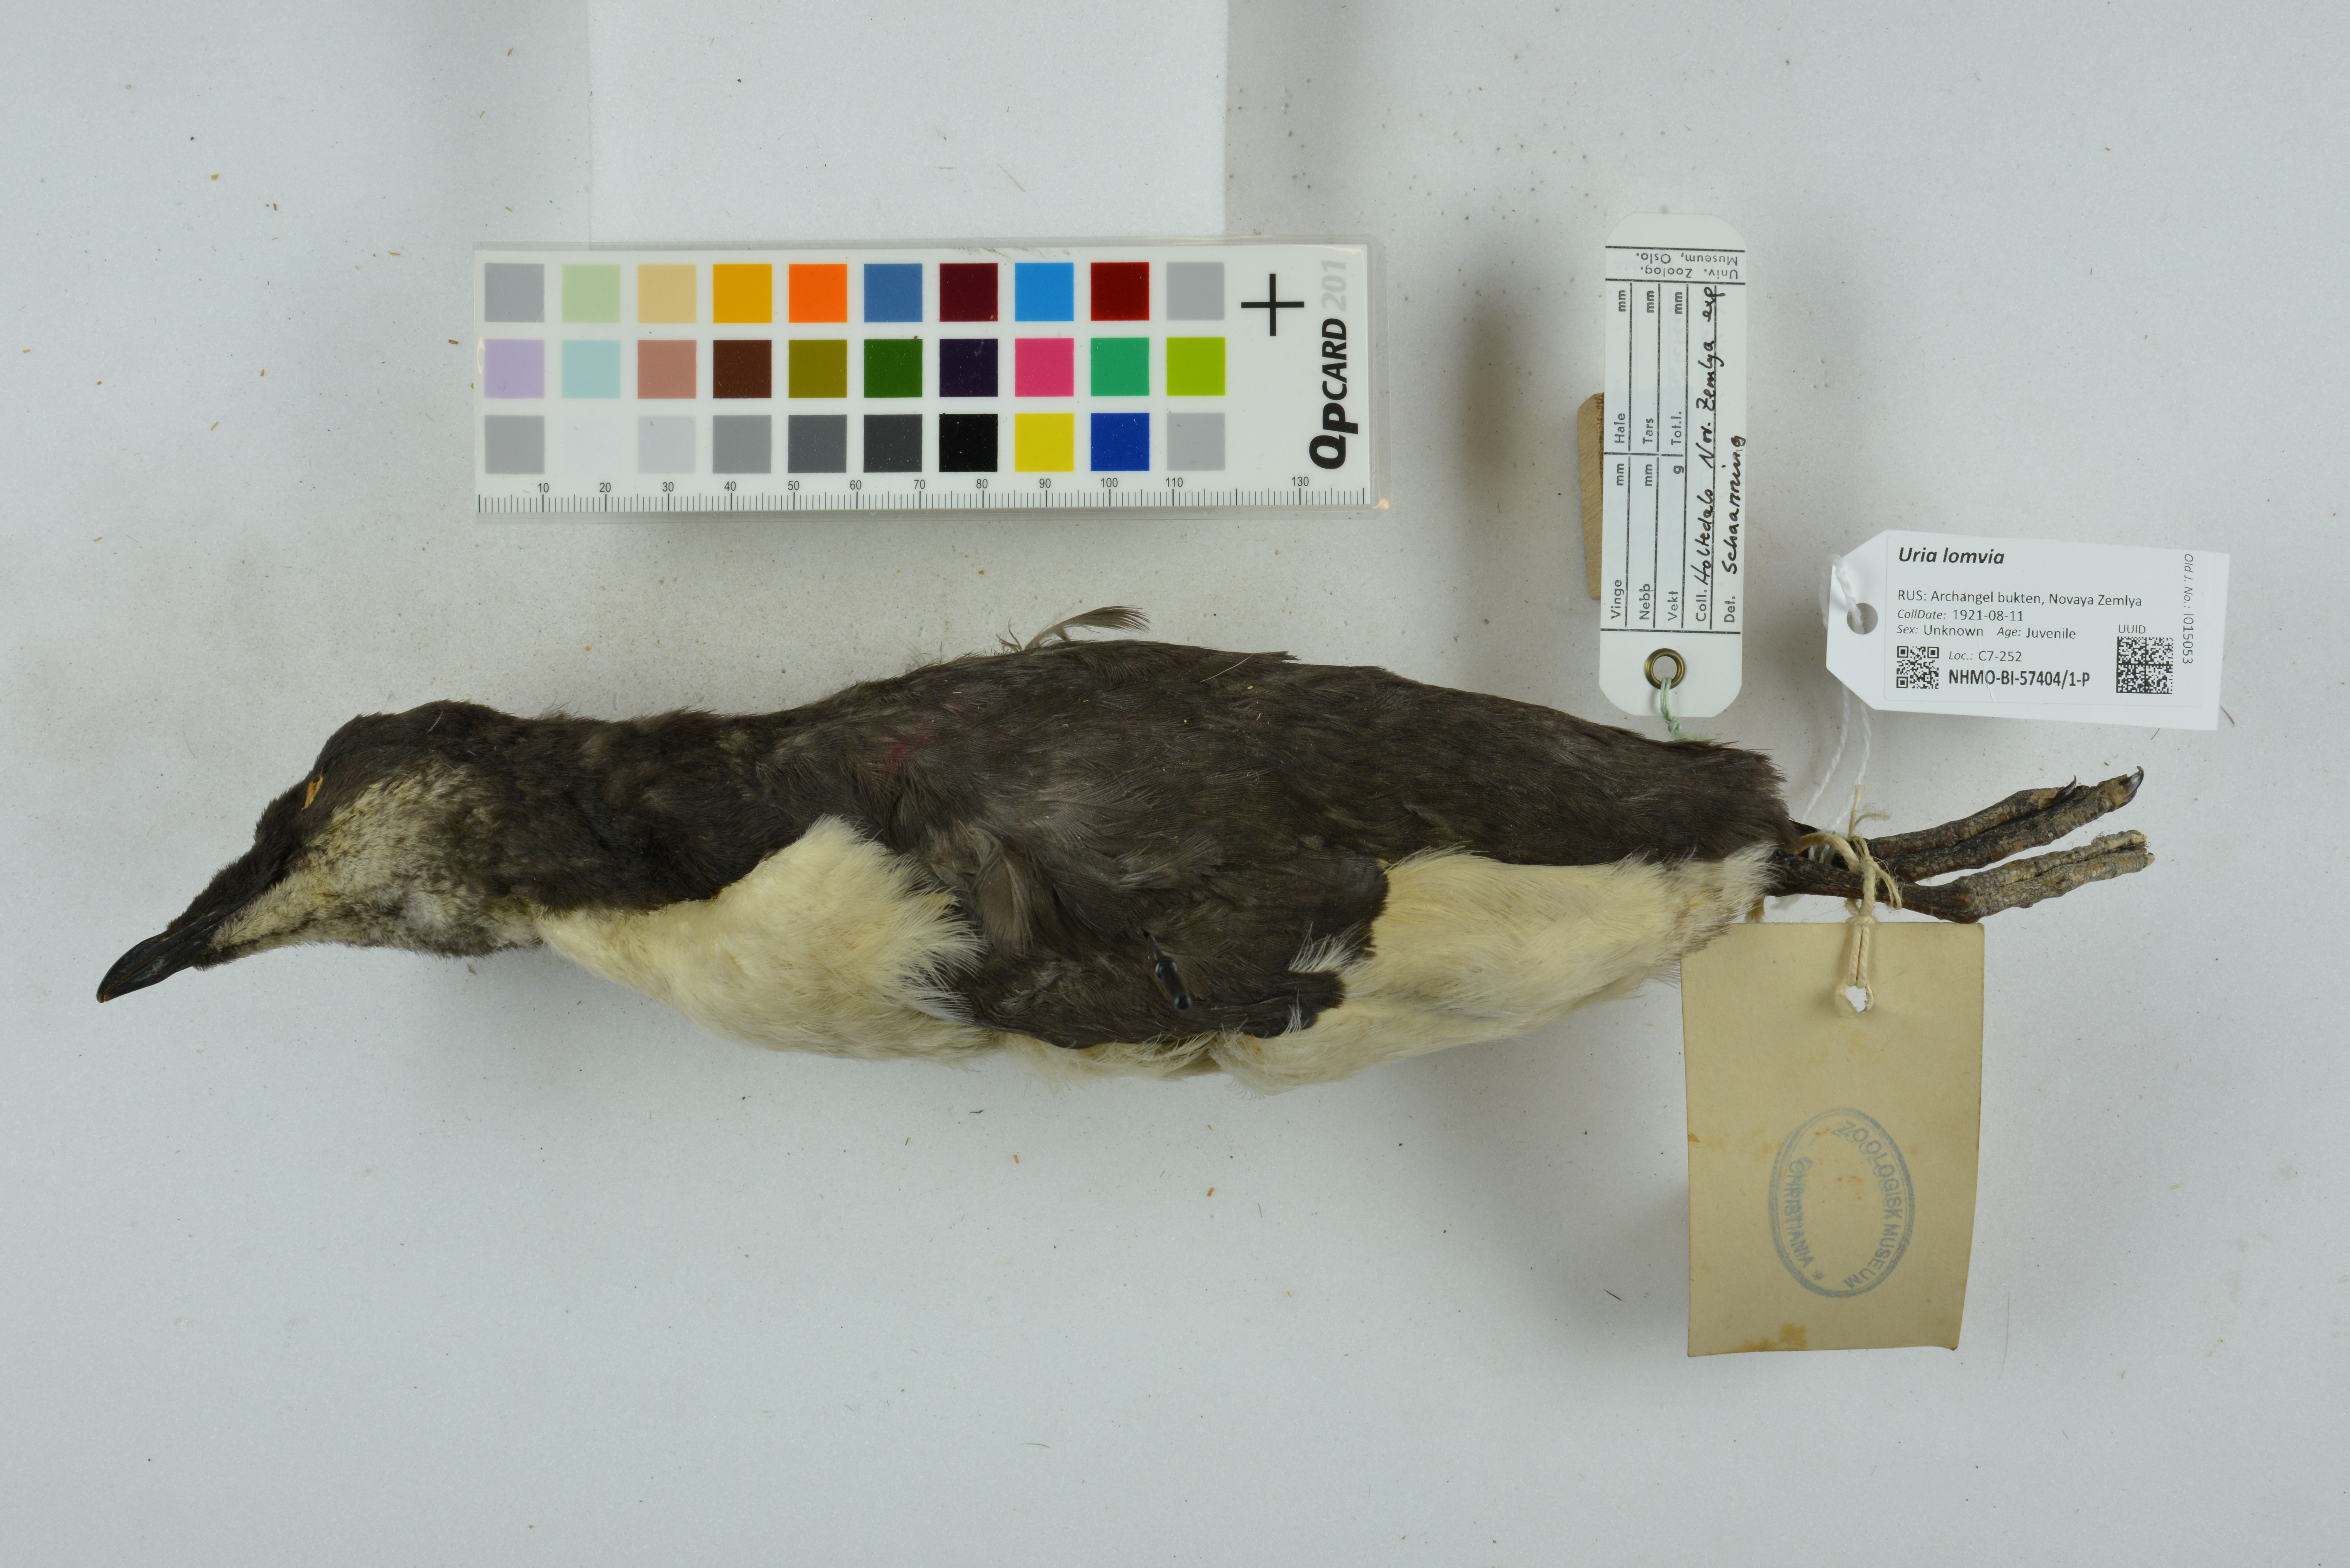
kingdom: Animalia
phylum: Chordata
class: Aves
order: Charadriiformes
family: Alcidae
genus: Uria
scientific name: Uria lomvia
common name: Thick-billed murre
